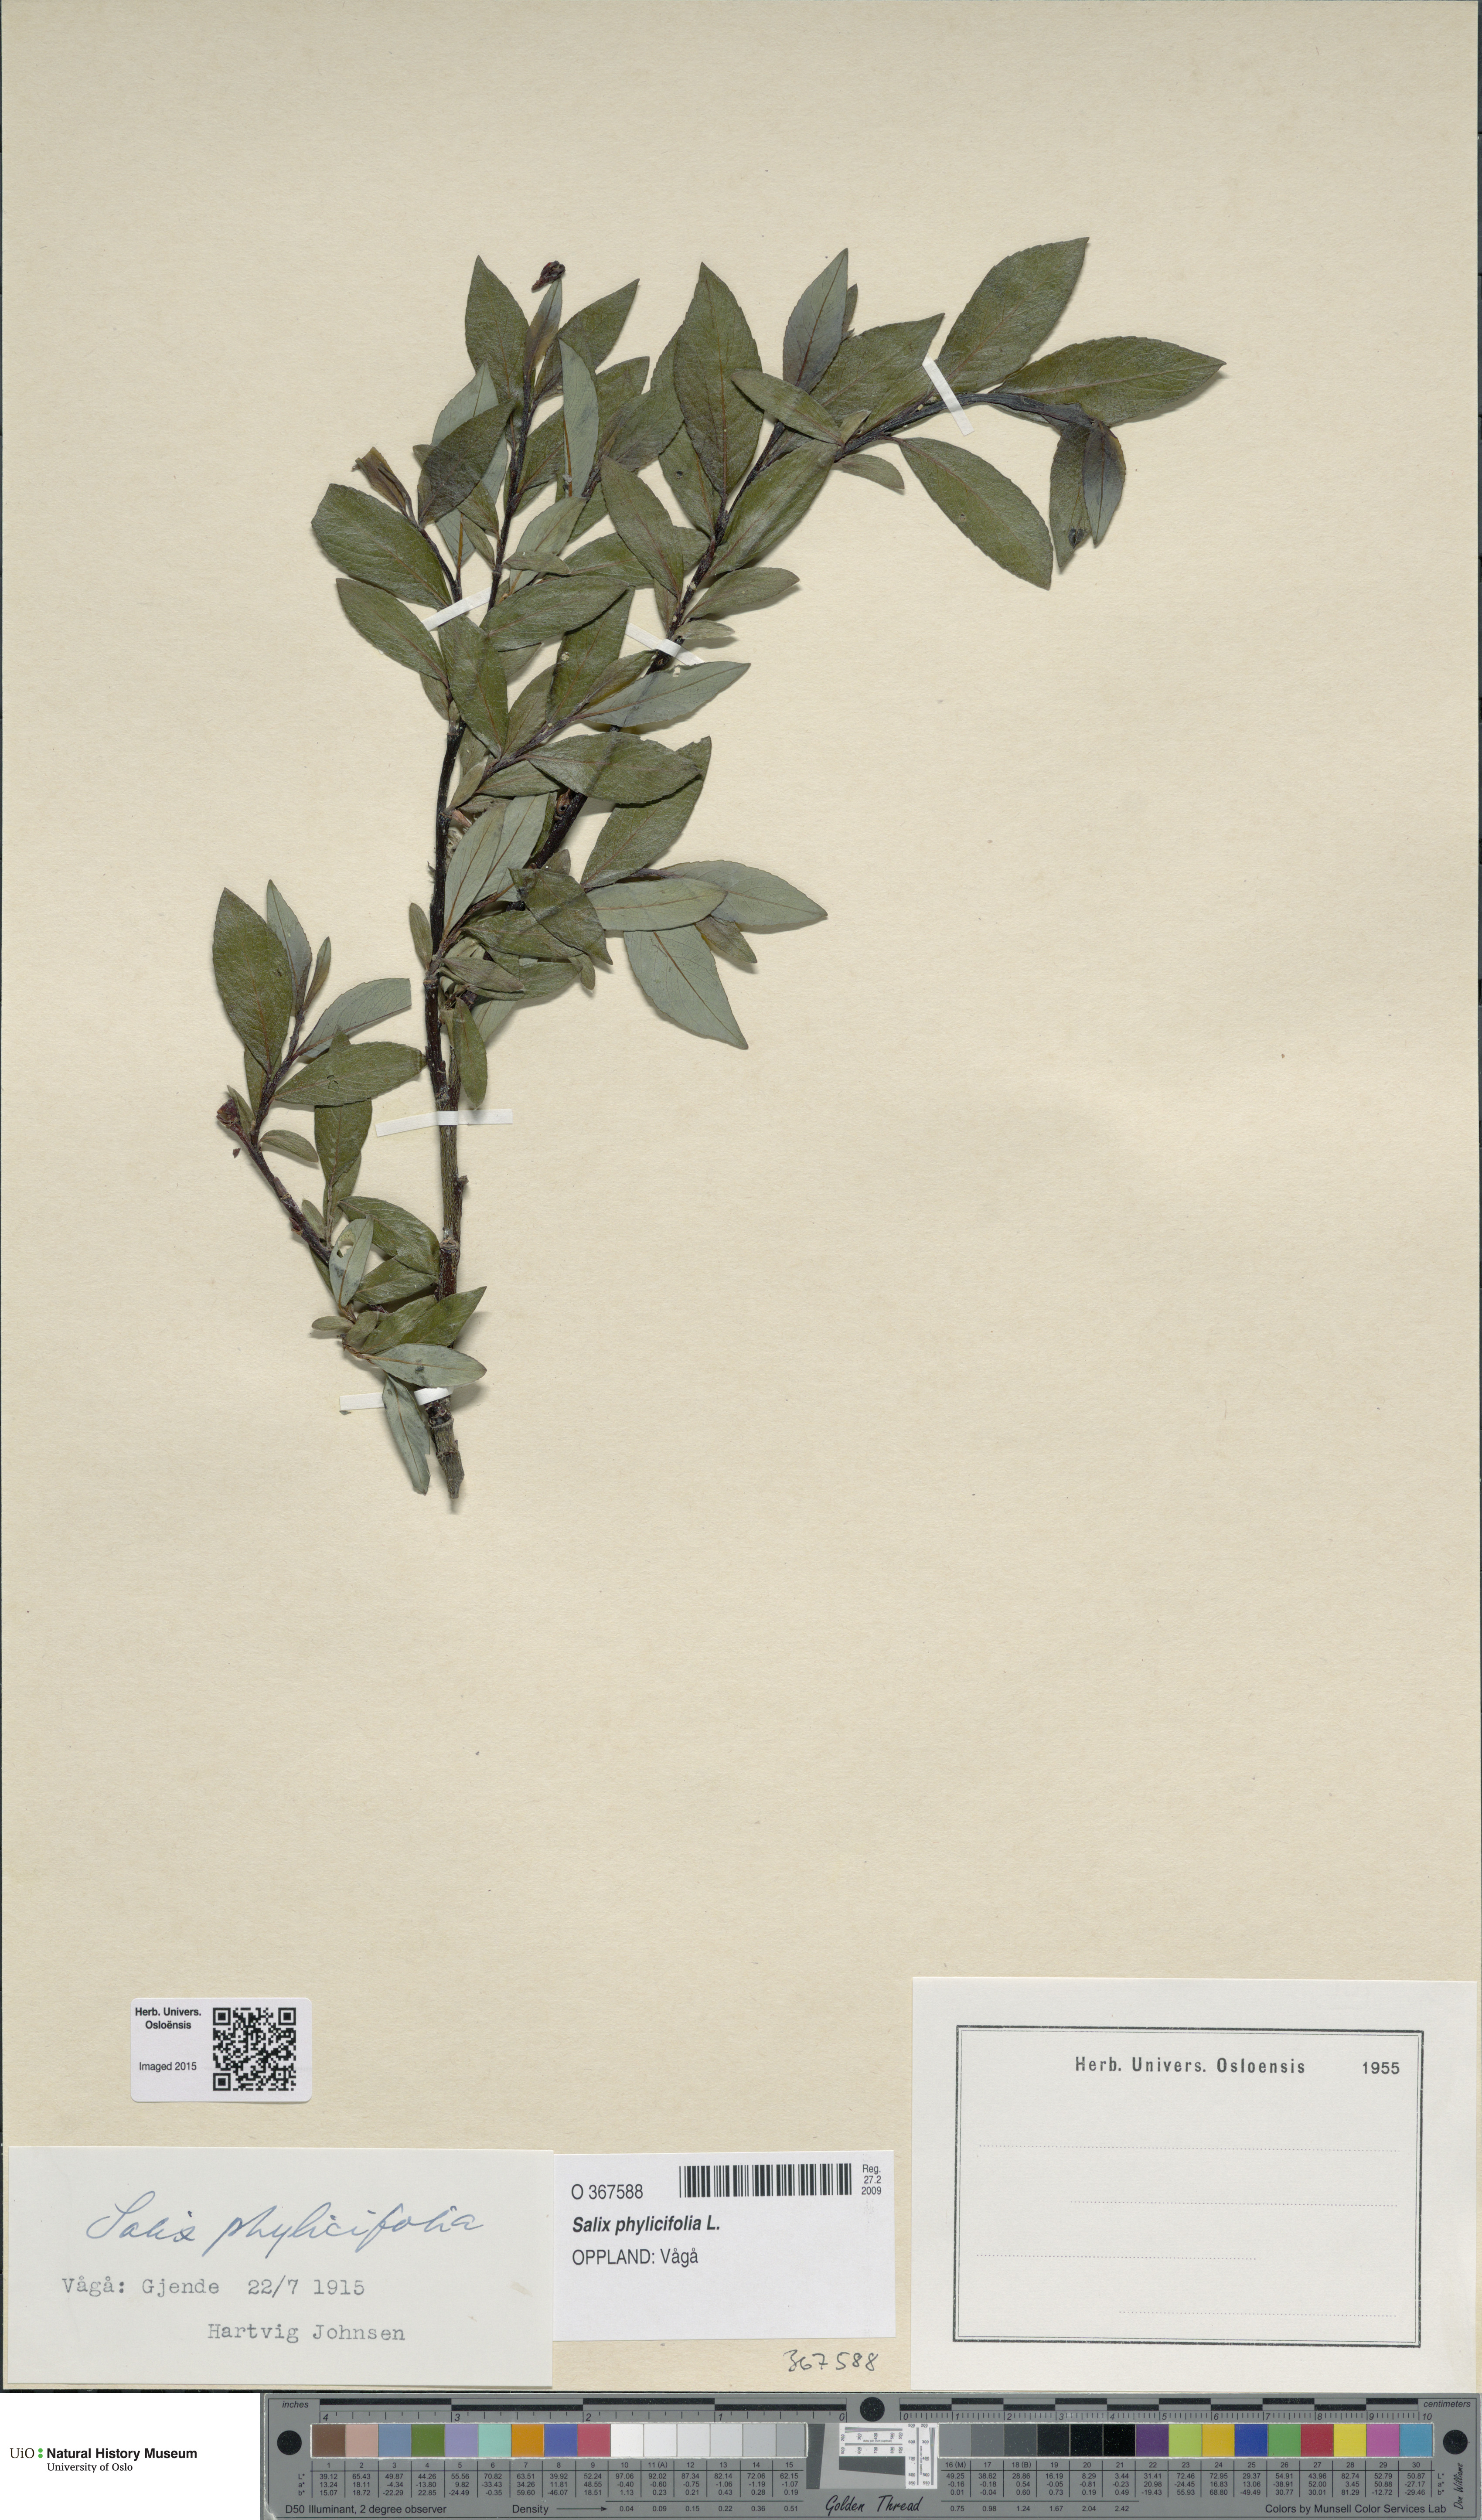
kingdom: Plantae
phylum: Tracheophyta
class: Magnoliopsida
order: Malpighiales
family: Salicaceae
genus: Salix
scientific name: Salix phylicifolia
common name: Tea-leaved willow
